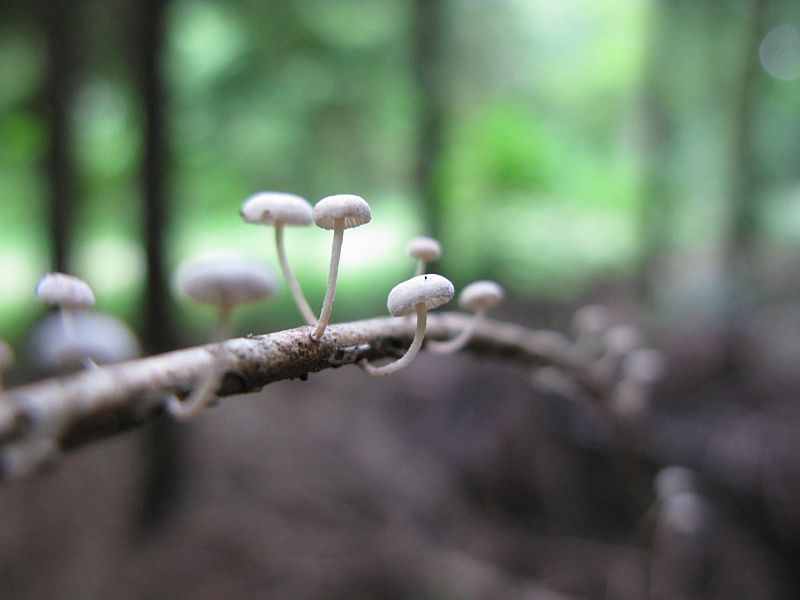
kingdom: Fungi
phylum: Basidiomycota
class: Agaricomycetes
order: Agaricales
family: Omphalotaceae
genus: Collybiopsis
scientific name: Collybiopsis ramealis
